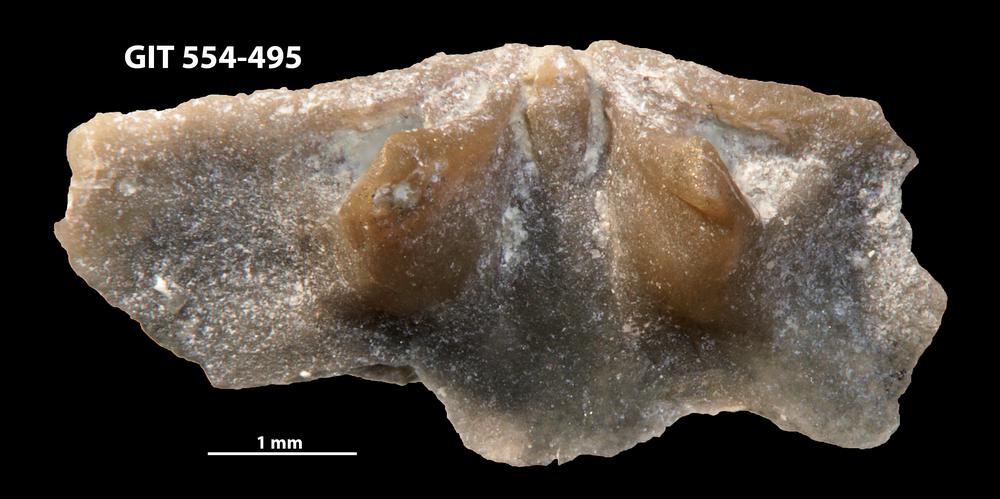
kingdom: Animalia
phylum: Brachiopoda
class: Rhynchonellata
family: Dalmanellidae
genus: Isorthis
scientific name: Isorthis parvulus
